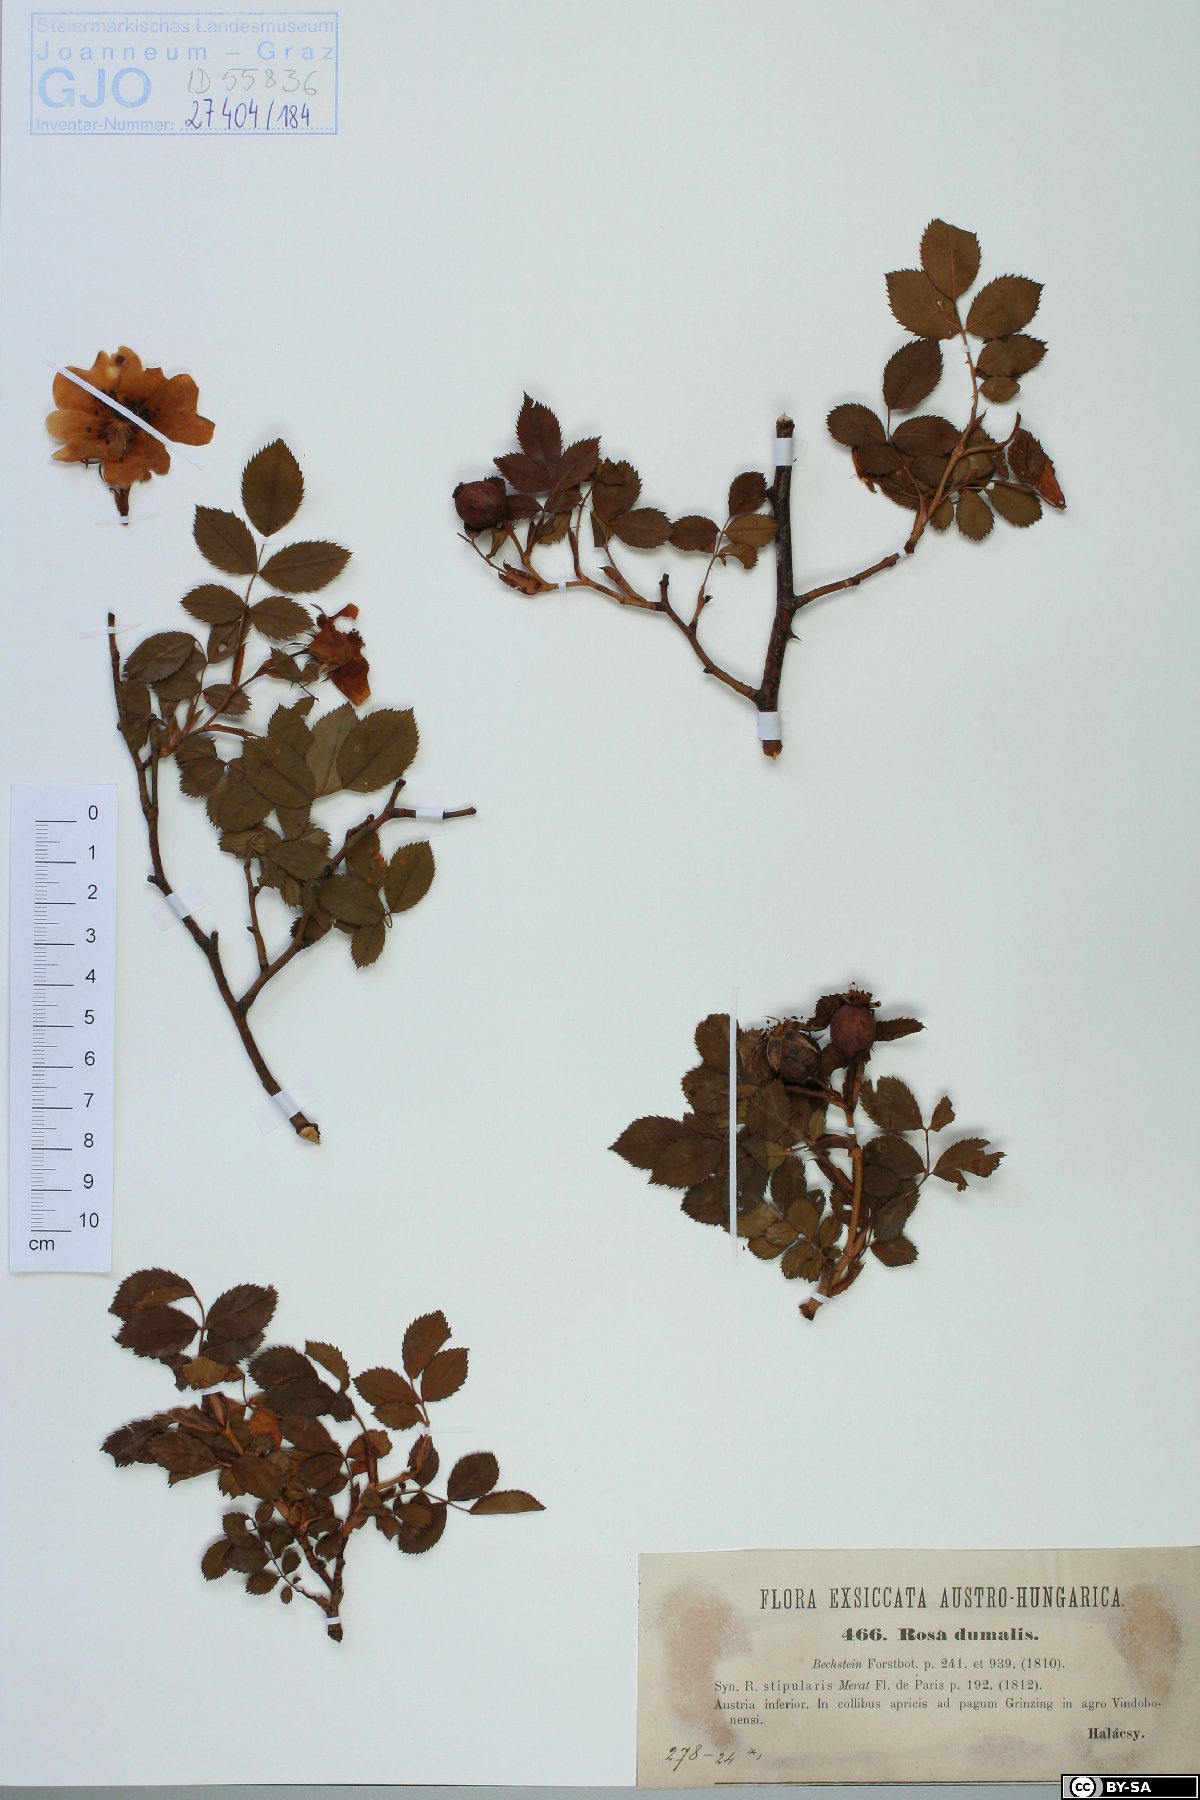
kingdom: Plantae
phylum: Tracheophyta
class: Magnoliopsida
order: Rosales
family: Rosaceae
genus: Rosa
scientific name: Rosa dumalis
